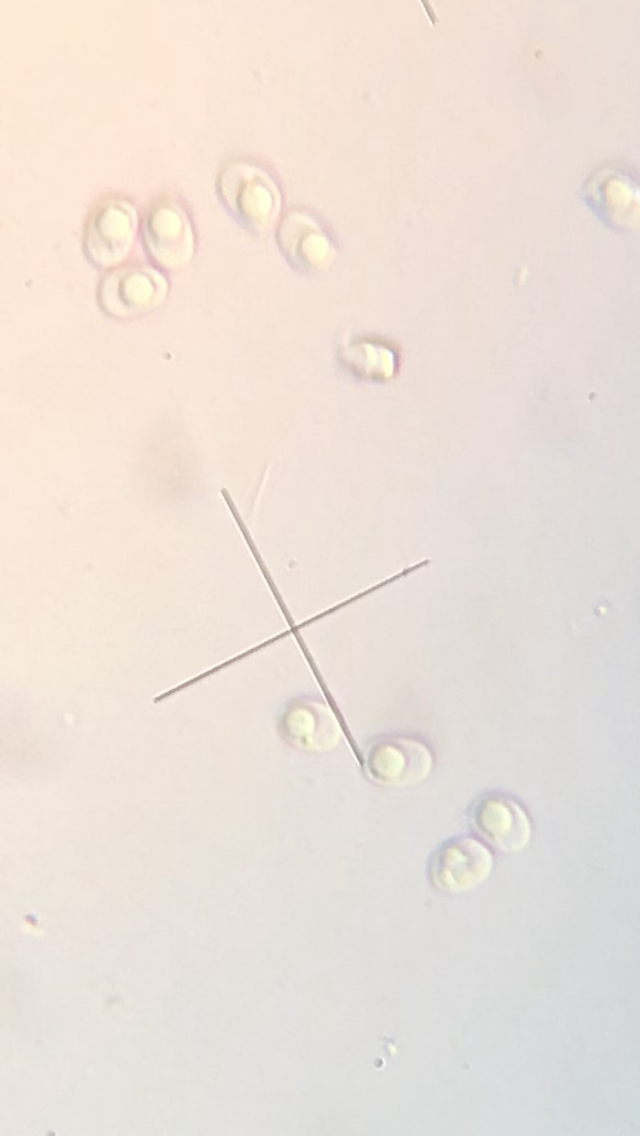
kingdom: Fungi
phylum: Basidiomycota
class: Agaricomycetes
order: Corticiales
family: Corticiaceae
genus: Lyomyces
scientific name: Lyomyces sambuci
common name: almindelig hyldehinde
